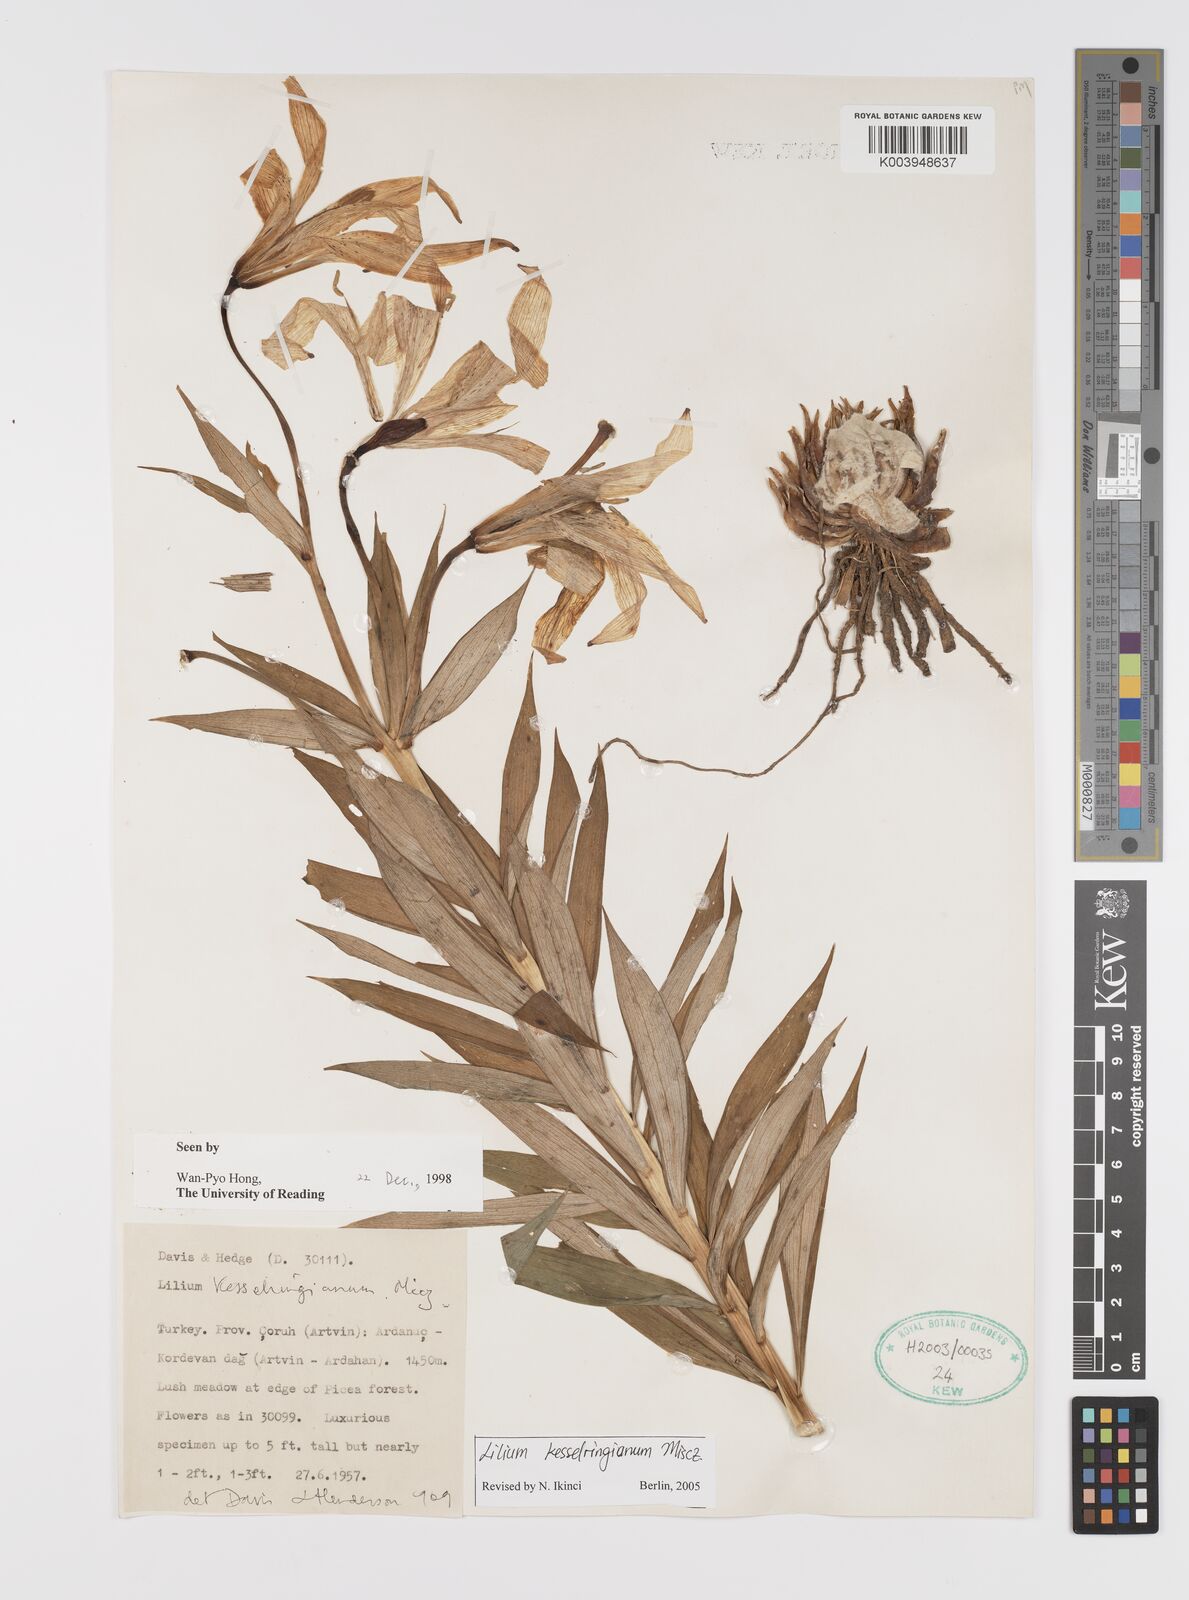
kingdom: Plantae
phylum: Tracheophyta
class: Liliopsida
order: Liliales
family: Liliaceae
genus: Lilium
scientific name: Lilium kesselringianum
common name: Kesselring lily
